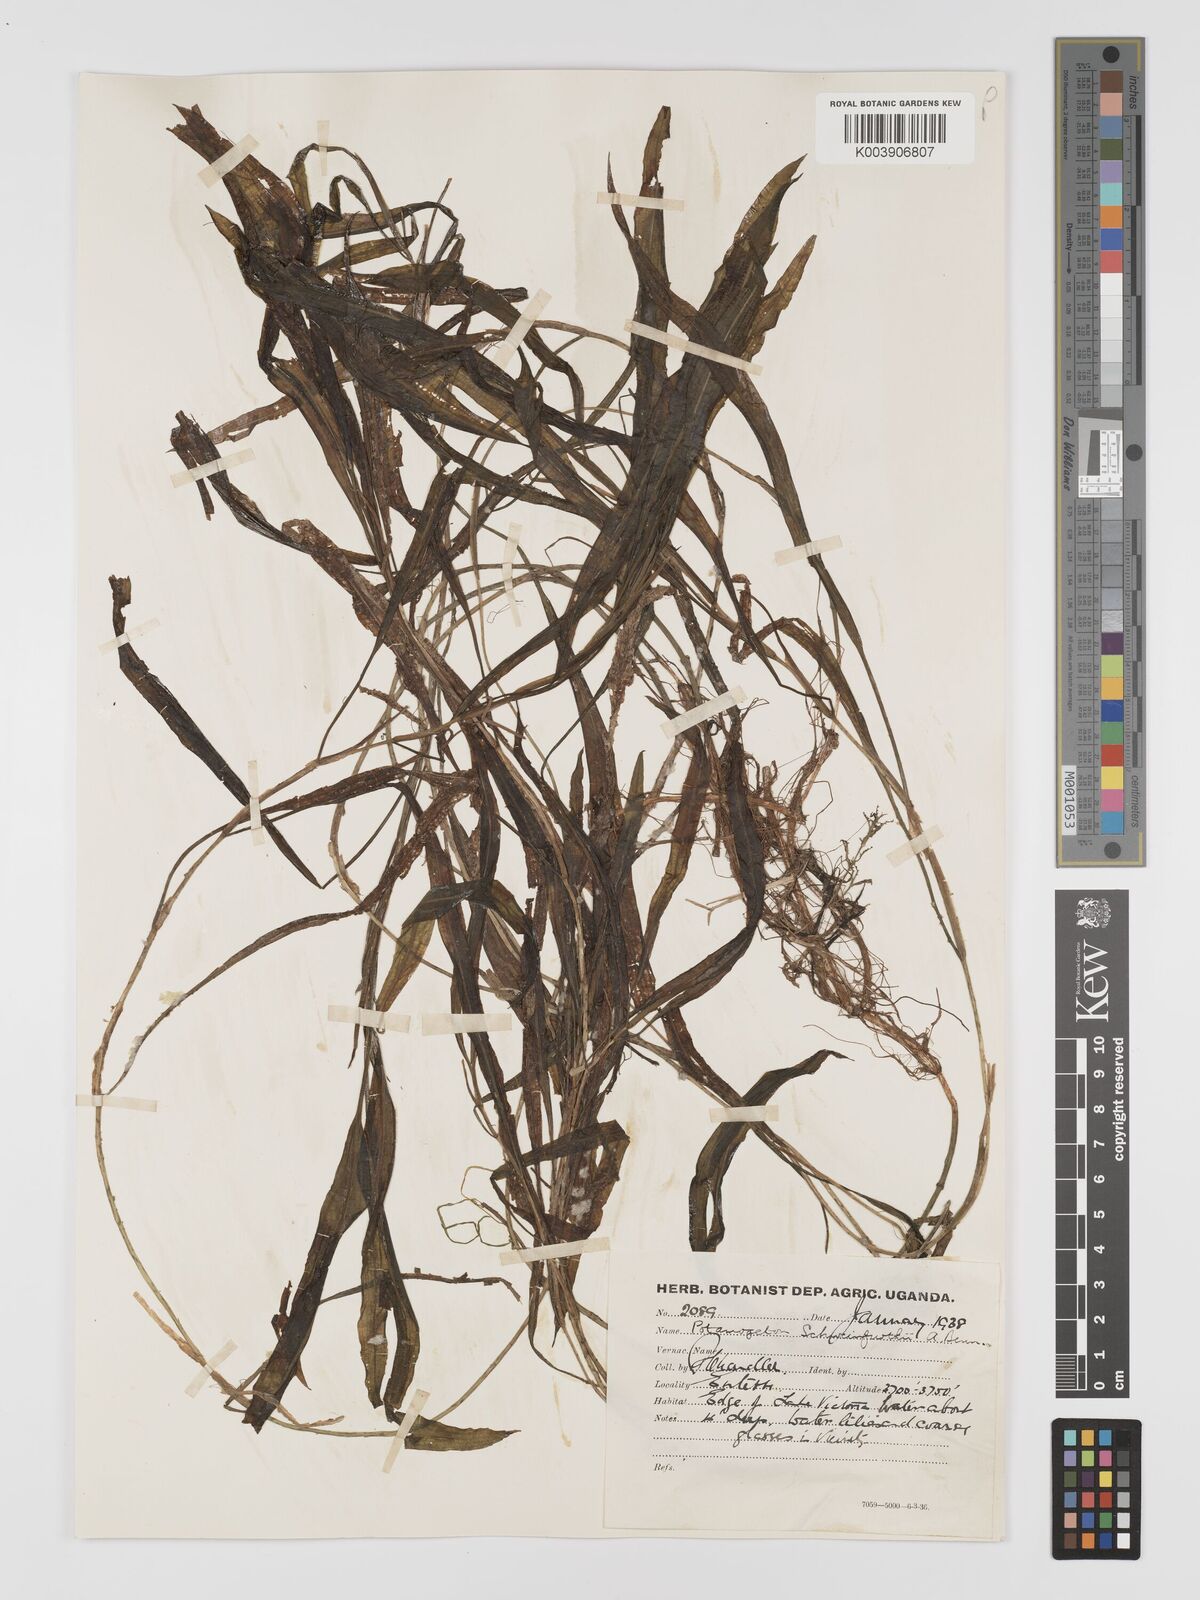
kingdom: Plantae
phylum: Tracheophyta
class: Liliopsida
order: Alismatales
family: Potamogetonaceae
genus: Potamogeton
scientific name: Potamogeton schweinfurthii
